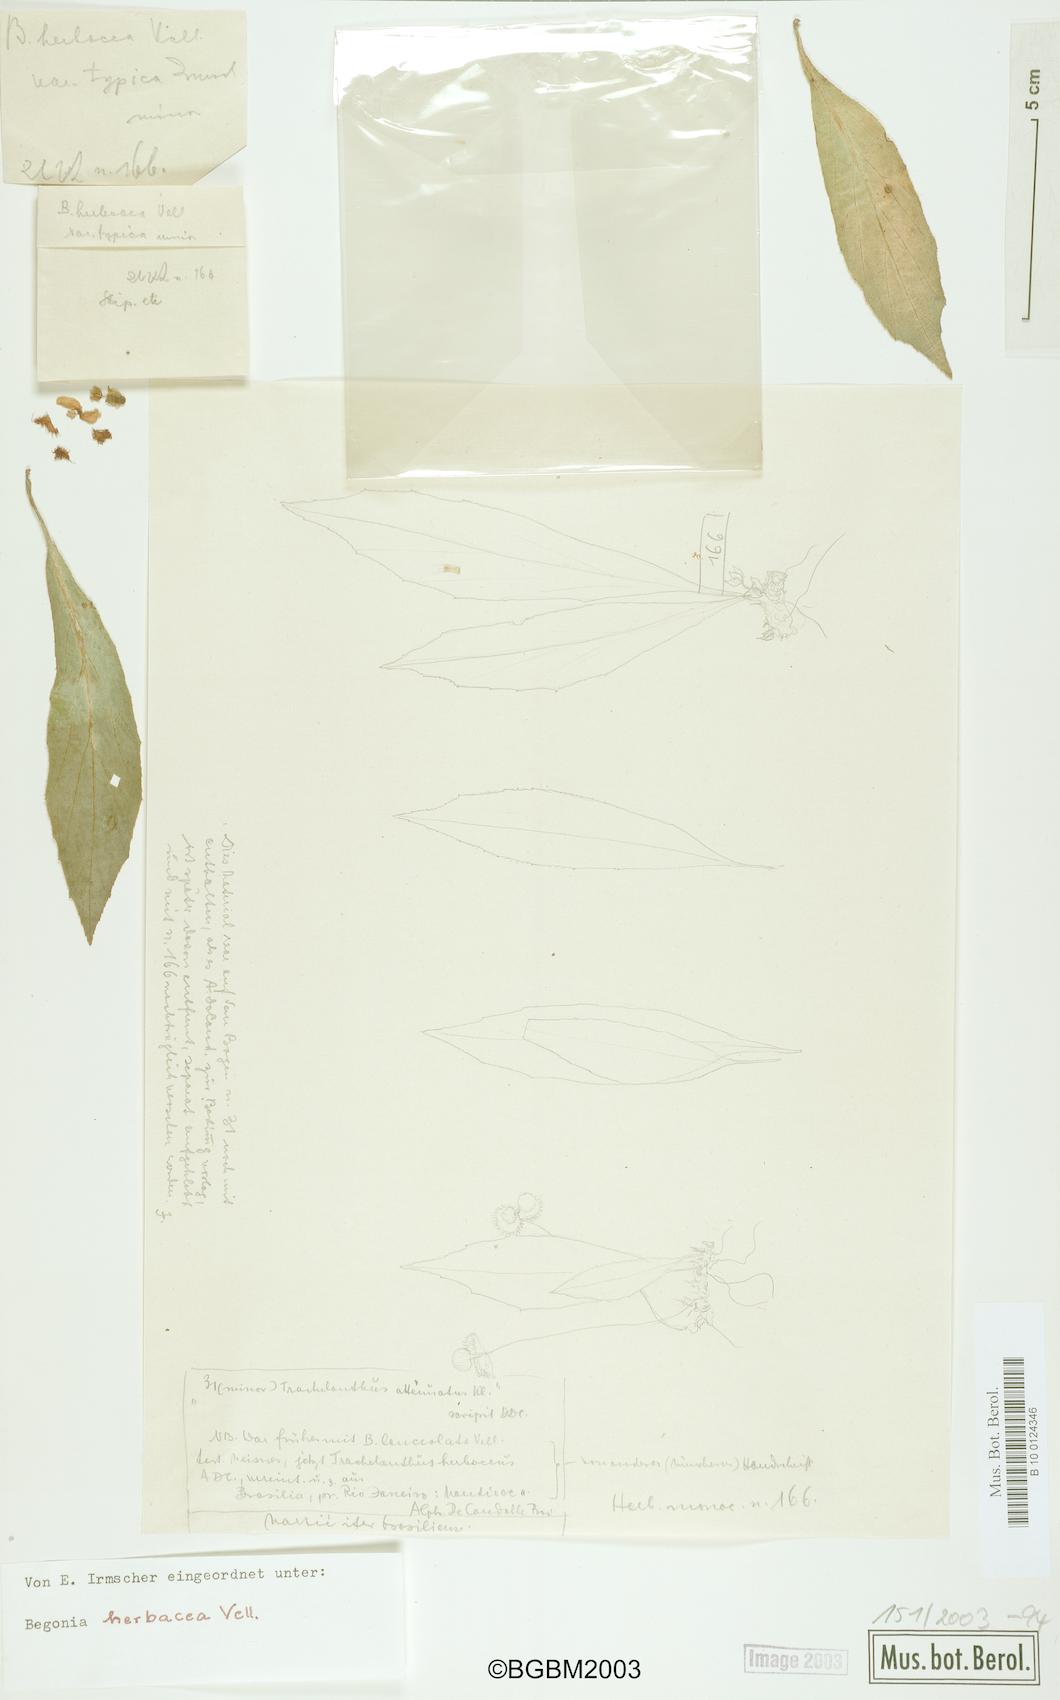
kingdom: Plantae
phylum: Tracheophyta
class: Magnoliopsida
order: Cucurbitales
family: Begoniaceae
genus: Begonia
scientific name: Begonia herbacea
